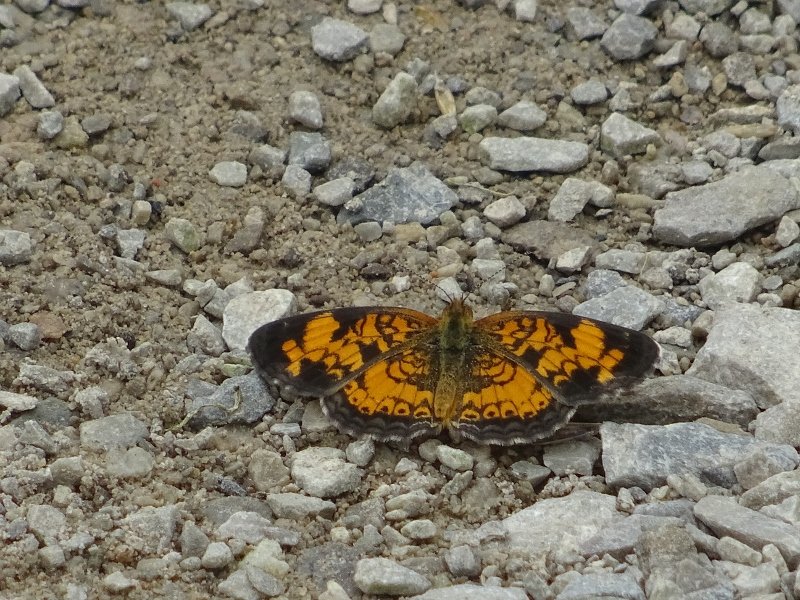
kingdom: Animalia
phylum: Arthropoda
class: Insecta
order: Lepidoptera
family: Nymphalidae
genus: Phyciodes
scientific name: Phyciodes tharos
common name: Pearl Crescent
